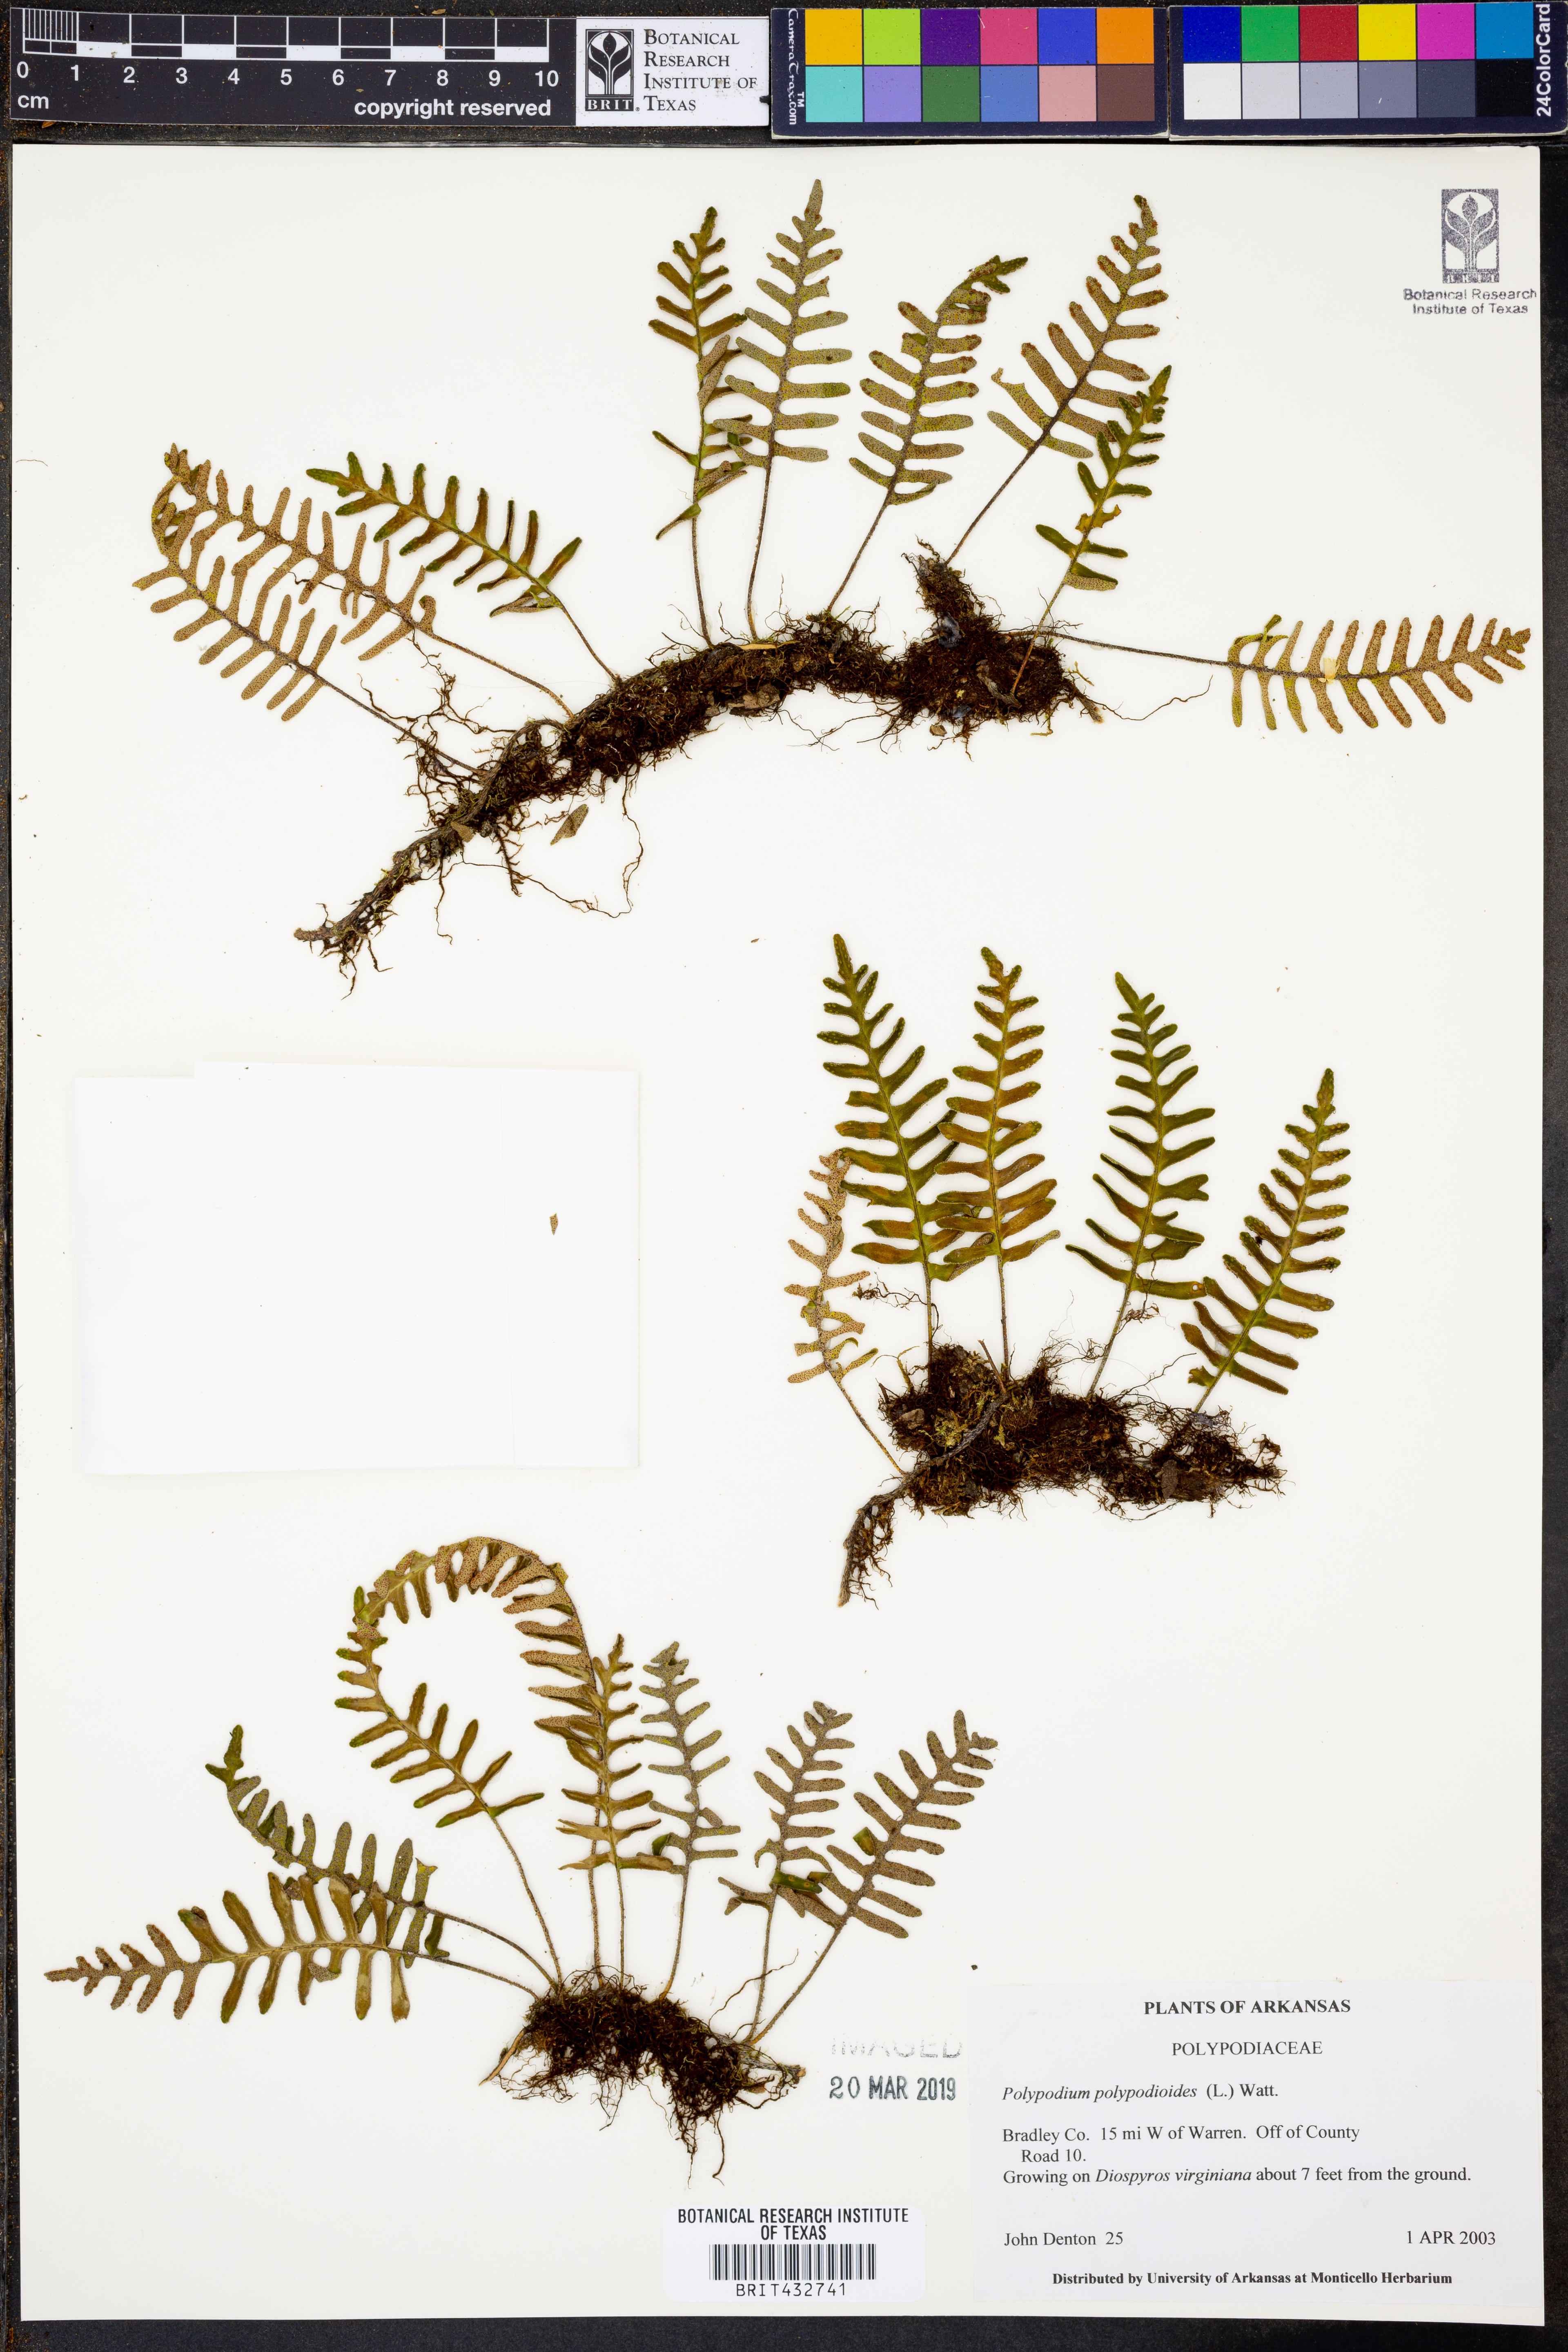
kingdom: Plantae
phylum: Tracheophyta
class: Polypodiopsida
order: Polypodiales
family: Polypodiaceae
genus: Pleopeltis
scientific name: Pleopeltis polypodioides
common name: Resurrection fern
